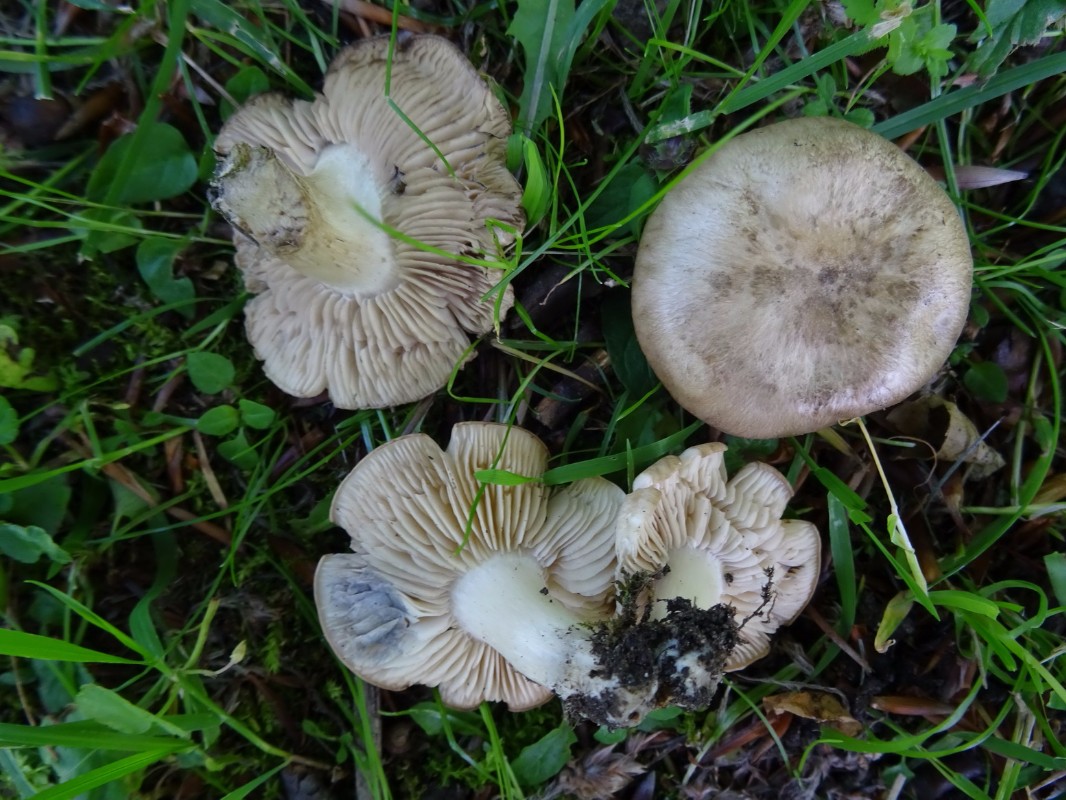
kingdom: Fungi
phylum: Basidiomycota
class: Agaricomycetes
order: Agaricales
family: Lyophyllaceae
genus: Lyophyllum
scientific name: Lyophyllum paelochroum
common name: blånende gråblad
